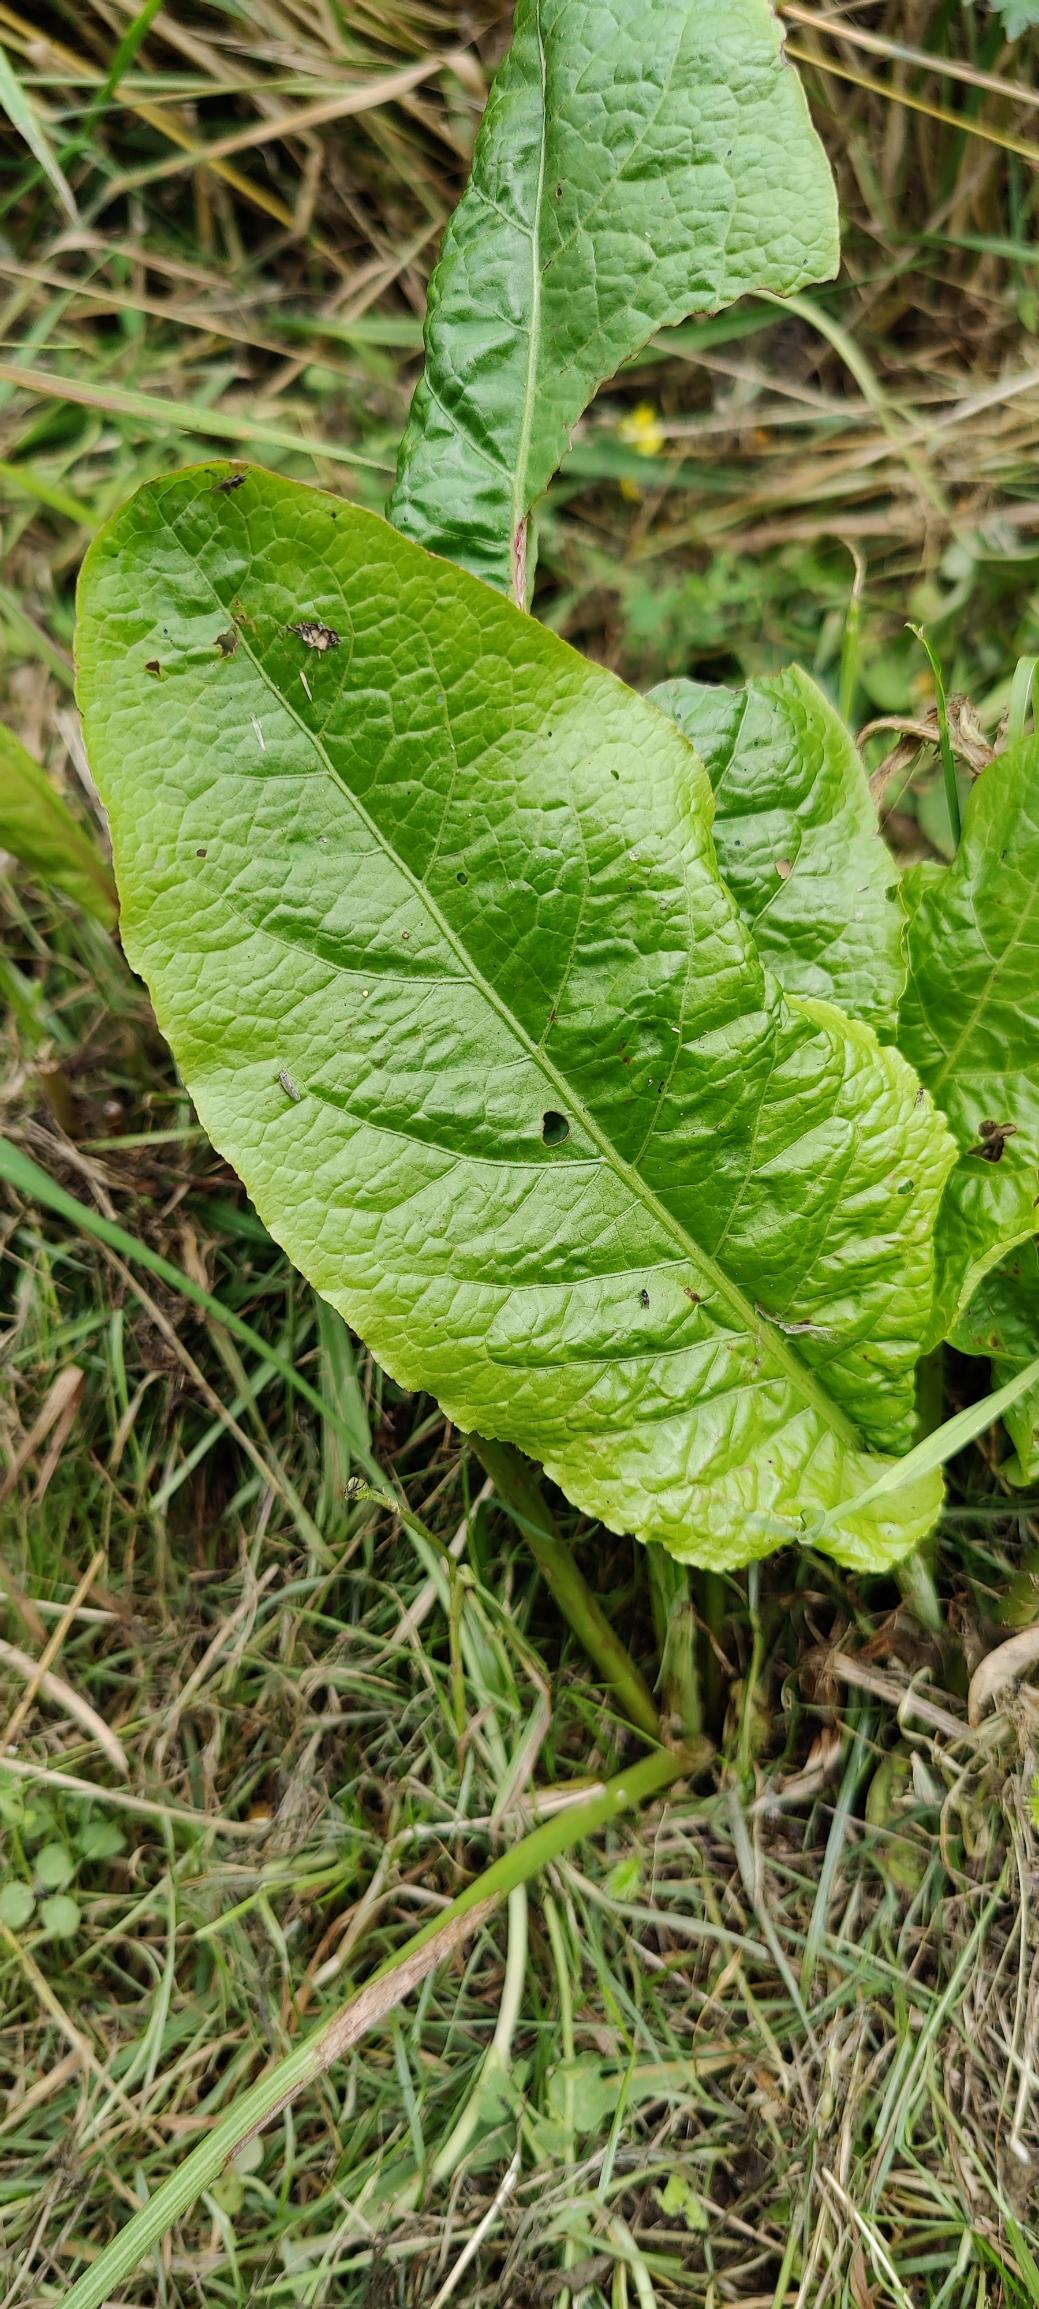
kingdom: Plantae
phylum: Tracheophyta
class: Magnoliopsida
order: Caryophyllales
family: Polygonaceae
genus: Rumex
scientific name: Rumex obtusifolius
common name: Butbladet skræppe
